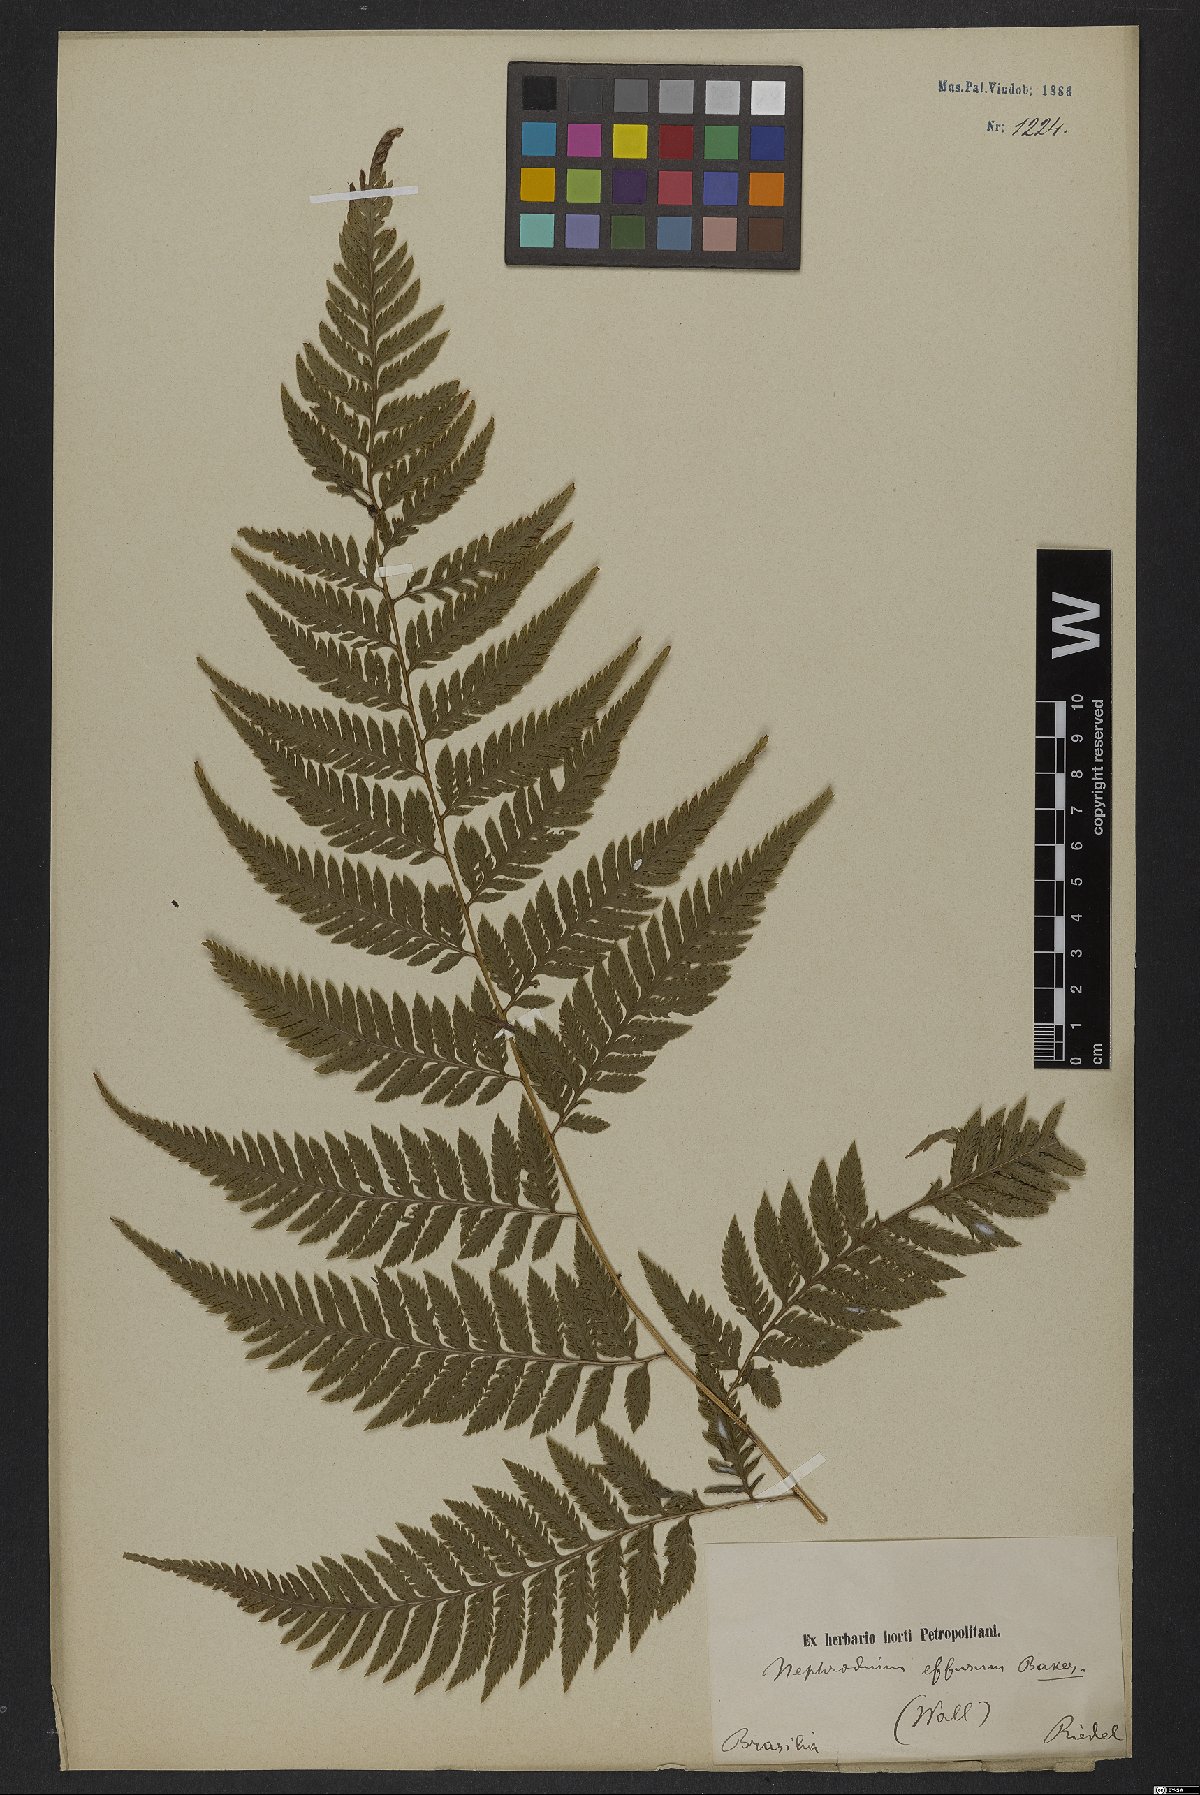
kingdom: Plantae
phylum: Tracheophyta
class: Polypodiopsida
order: Polypodiales
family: Dryopteridaceae
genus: Parapolystichum
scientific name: Parapolystichum effusum
